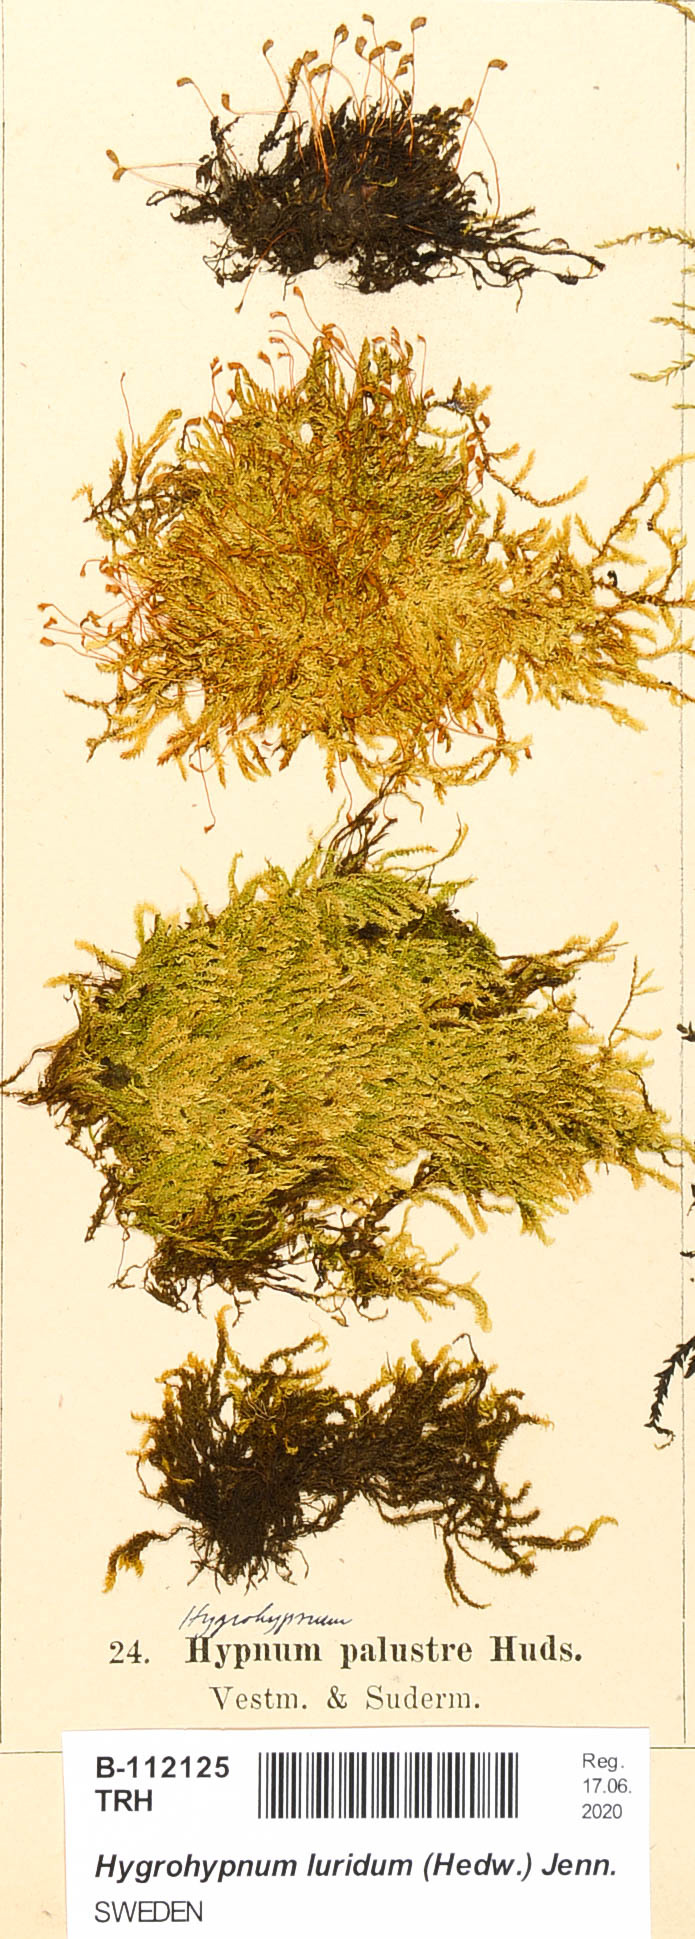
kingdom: Plantae
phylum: Bryophyta
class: Bryopsida
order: Hypnales
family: Amblystegiaceae
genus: Hygrohypnum
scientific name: Hygrohypnum luridum
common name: Drab brook moss
